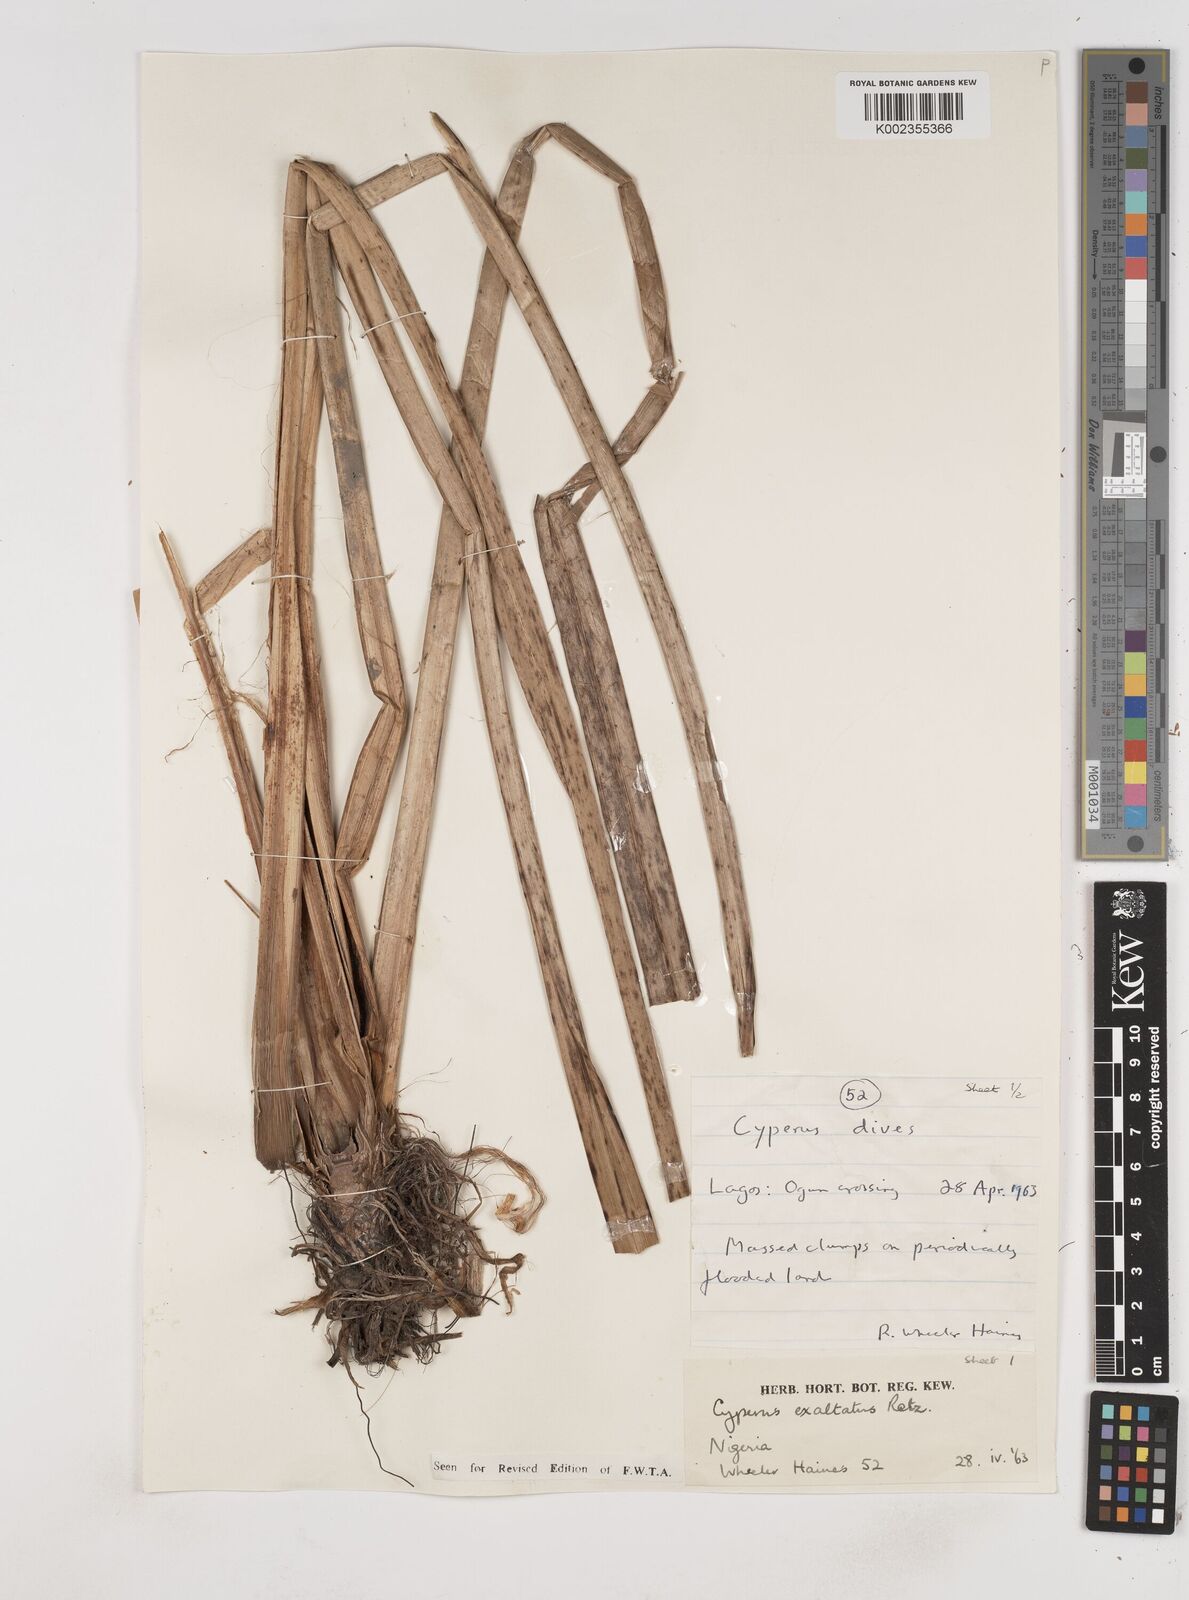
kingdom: Plantae
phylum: Tracheophyta
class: Liliopsida
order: Poales
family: Cyperaceae
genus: Cyperus
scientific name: Cyperus exaltatus
